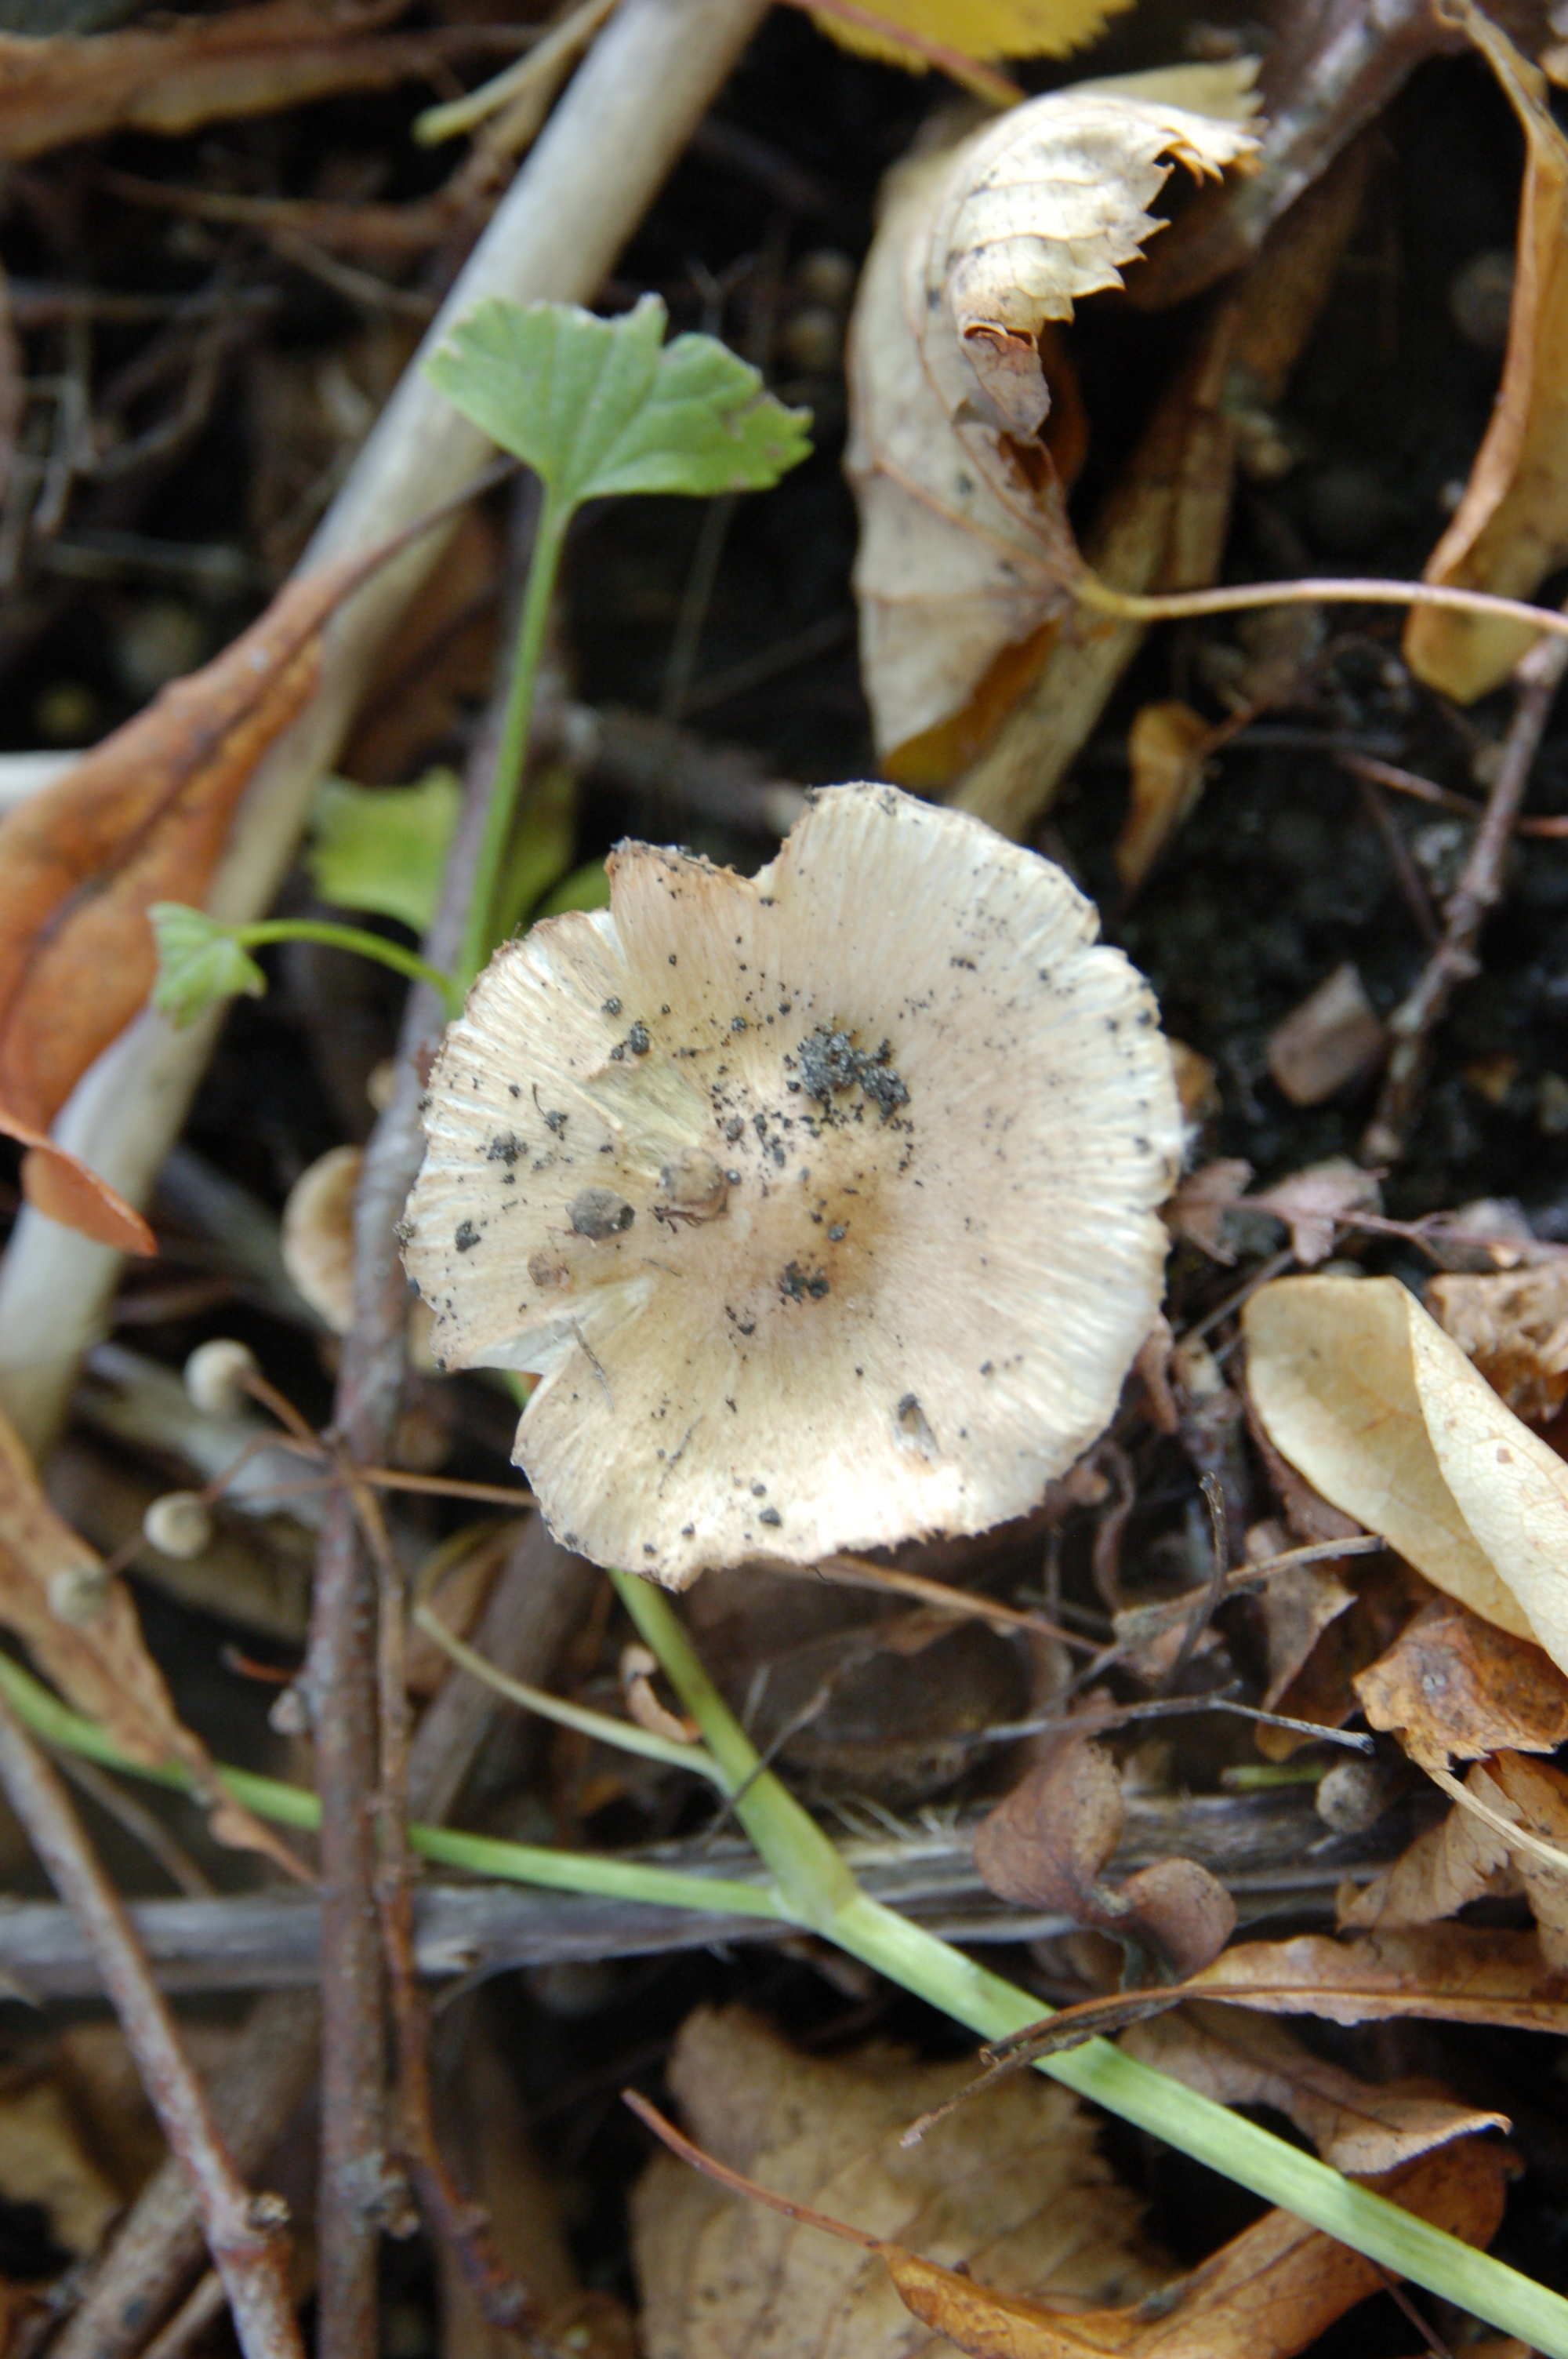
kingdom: Fungi
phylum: Basidiomycota
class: Agaricomycetes
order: Agaricales
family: Inocybaceae
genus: Inocybe
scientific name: Inocybe mixtilis
